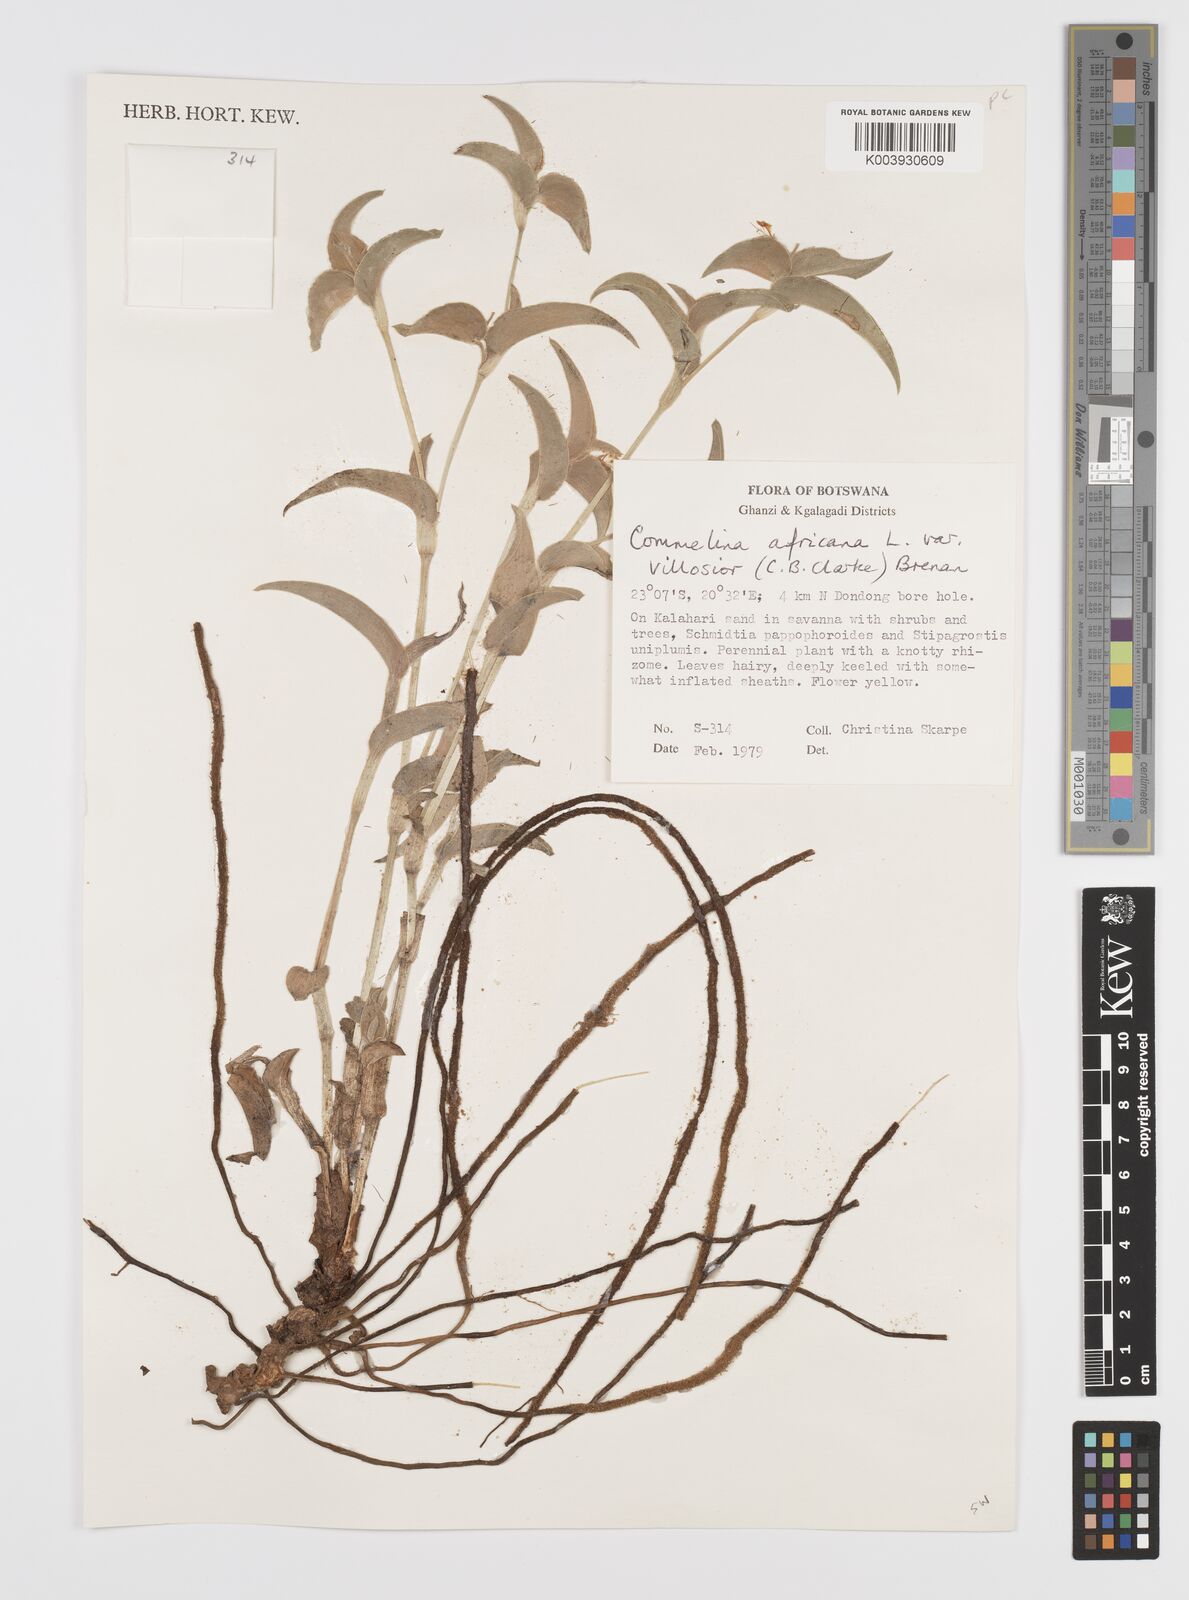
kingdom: Plantae
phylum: Tracheophyta
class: Liliopsida
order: Commelinales
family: Commelinaceae
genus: Commelina
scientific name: Commelina africana
